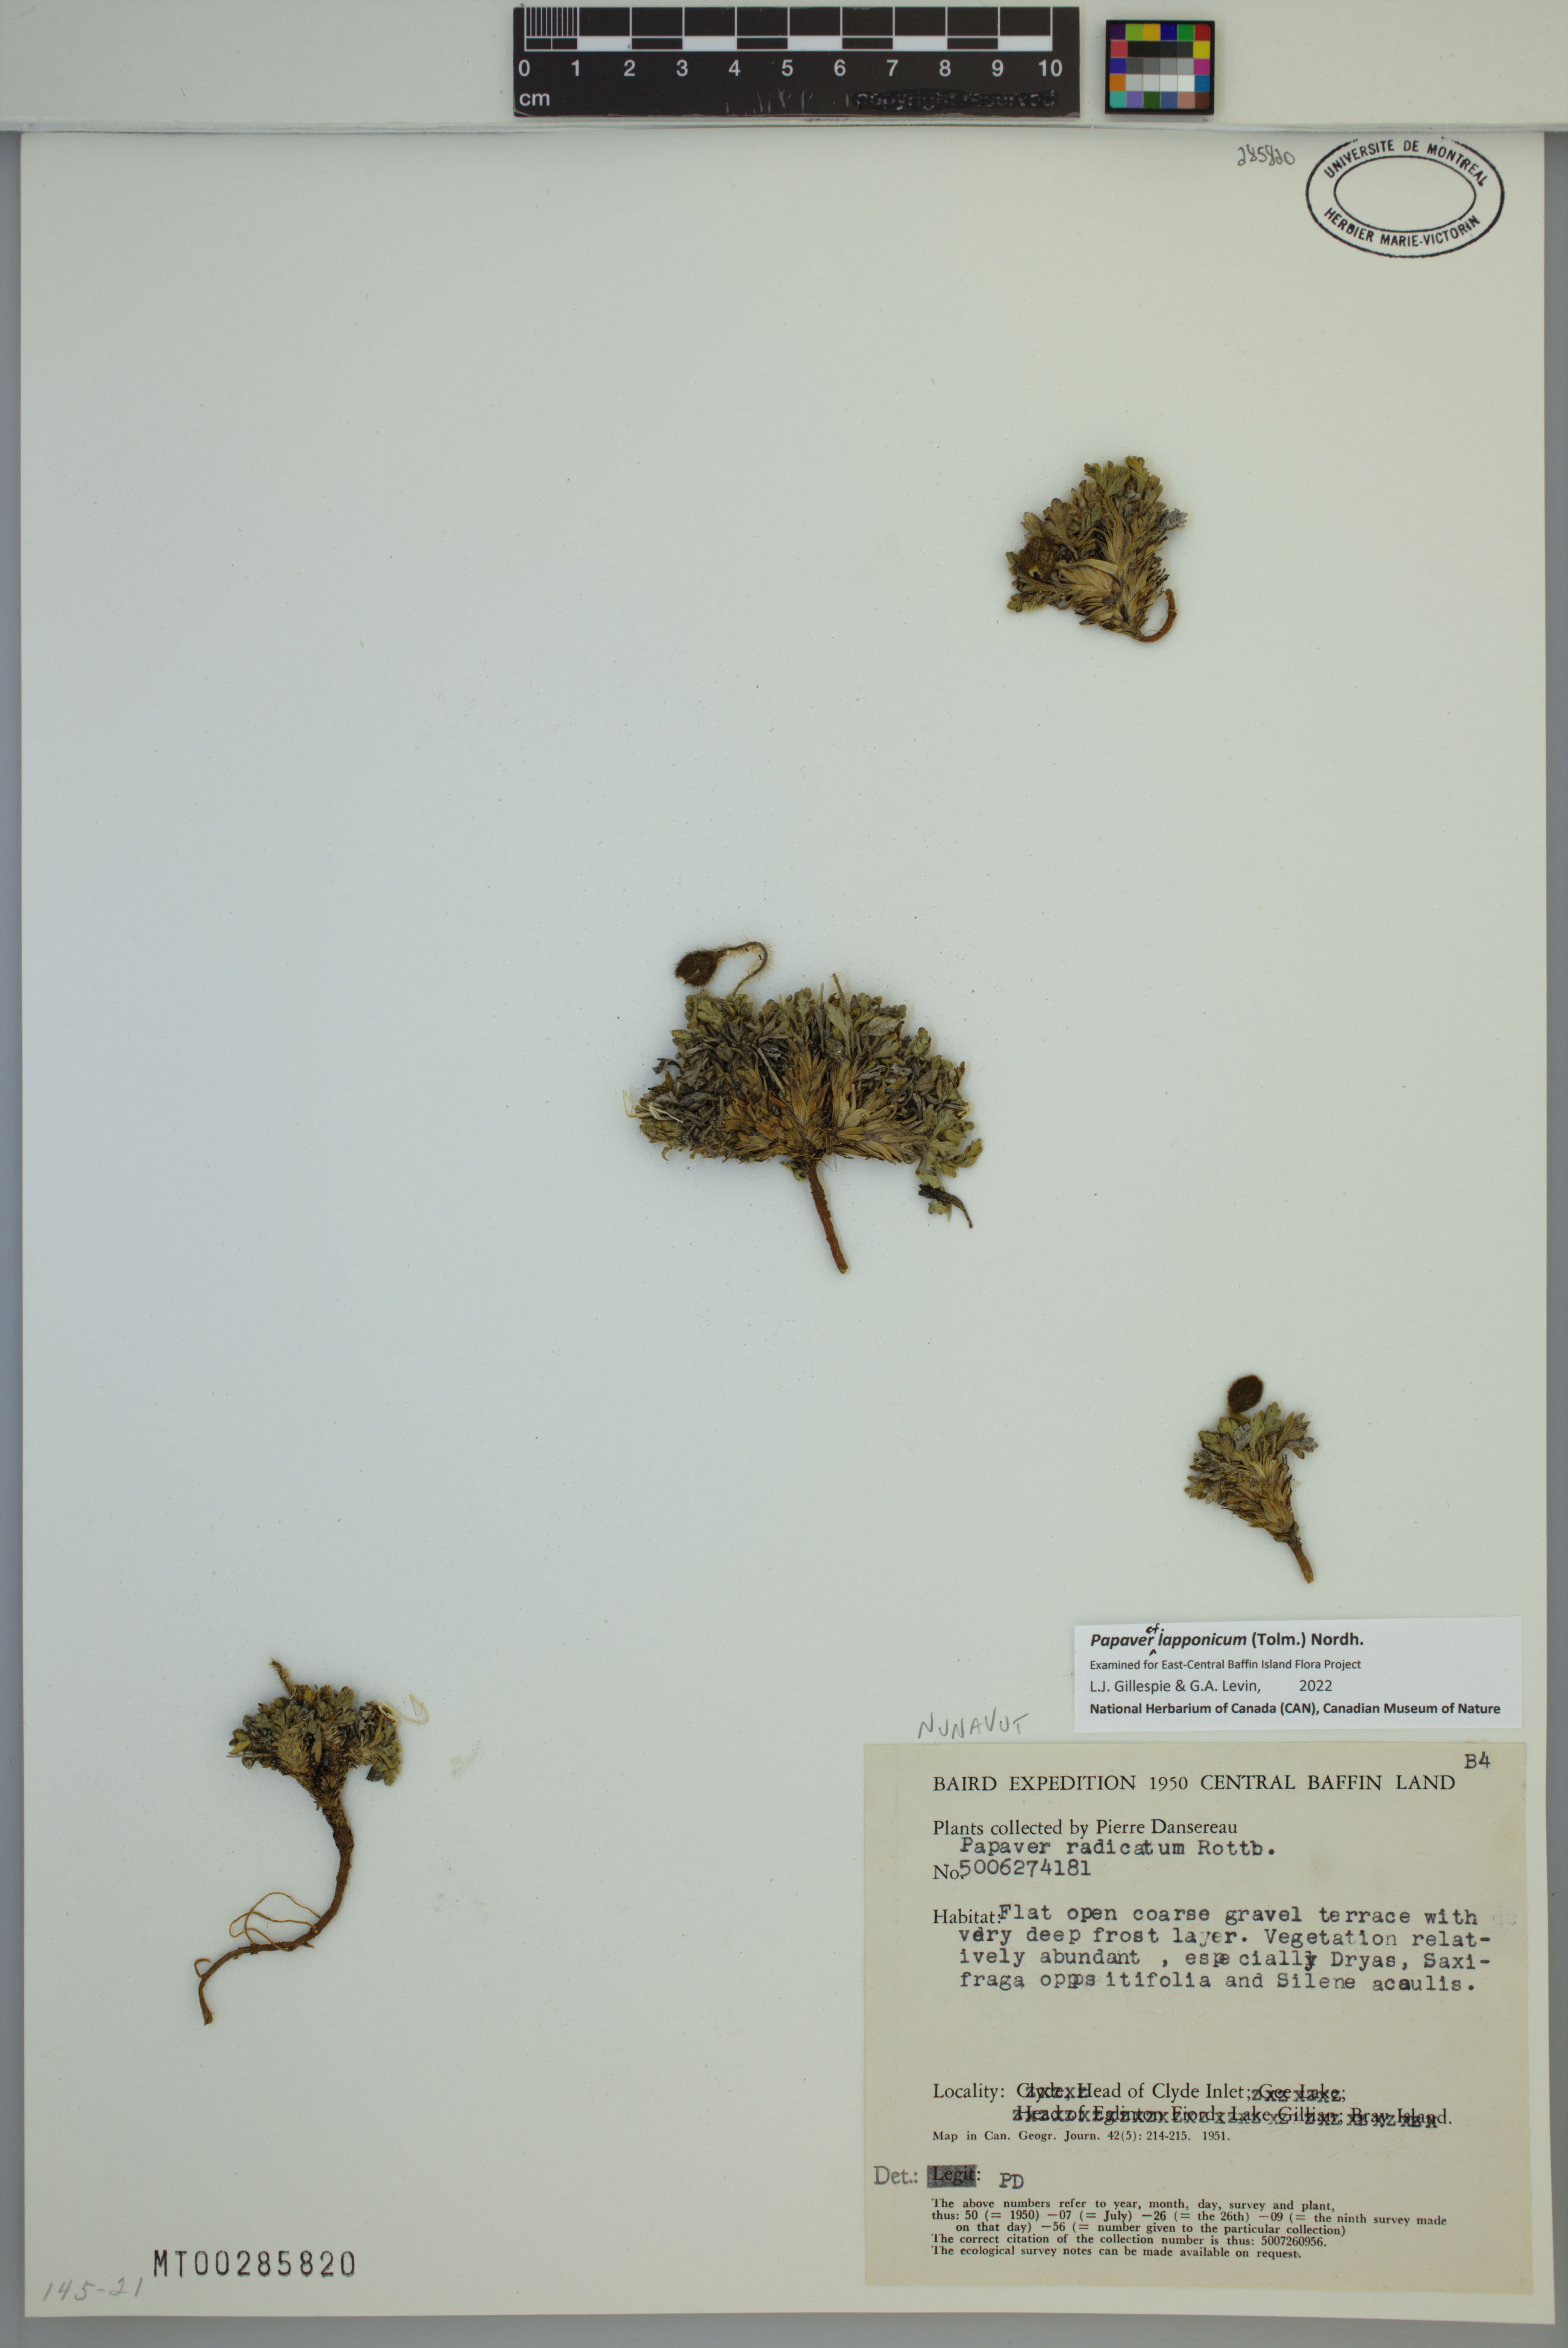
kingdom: Plantae
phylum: Tracheophyta
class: Magnoliopsida
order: Ranunculales
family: Papaveraceae
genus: Papaver
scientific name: Papaver lapponicum
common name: Lapland poppy
